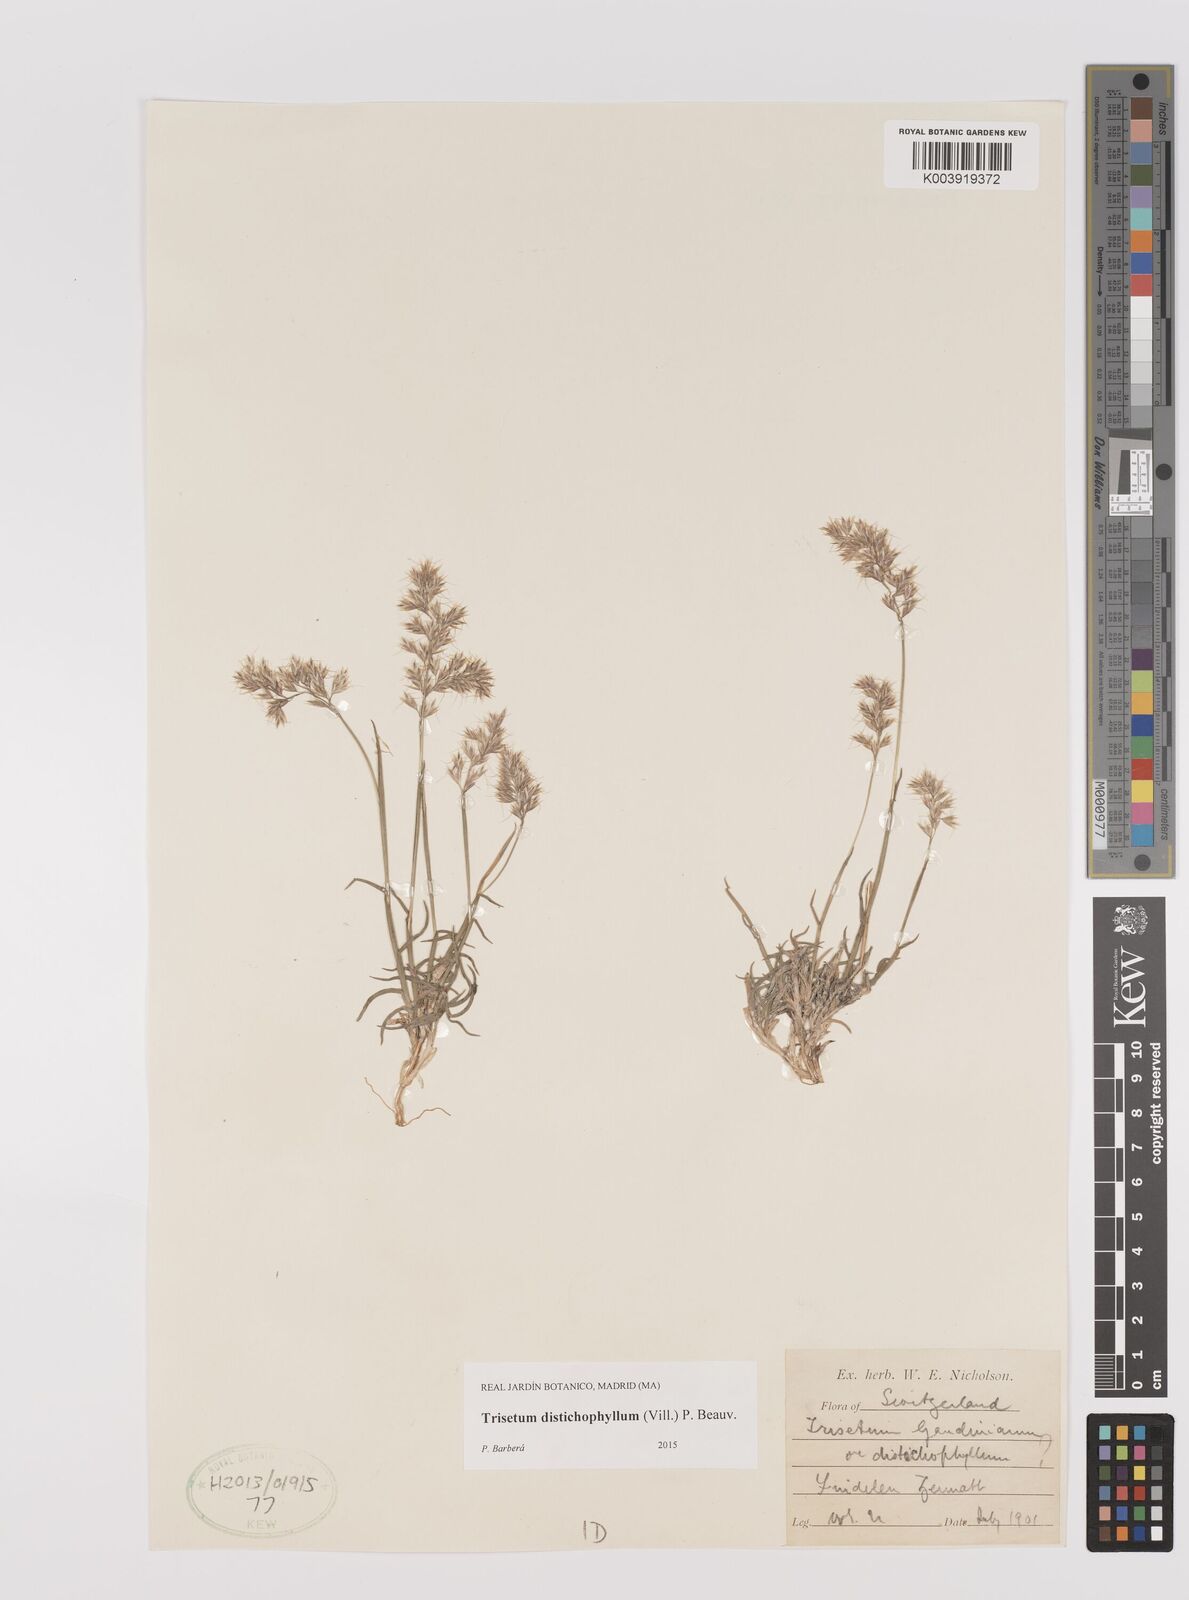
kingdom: Plantae
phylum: Tracheophyta
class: Liliopsida
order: Poales
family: Poaceae
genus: Acrospelion
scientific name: Acrospelion distichophyllum
